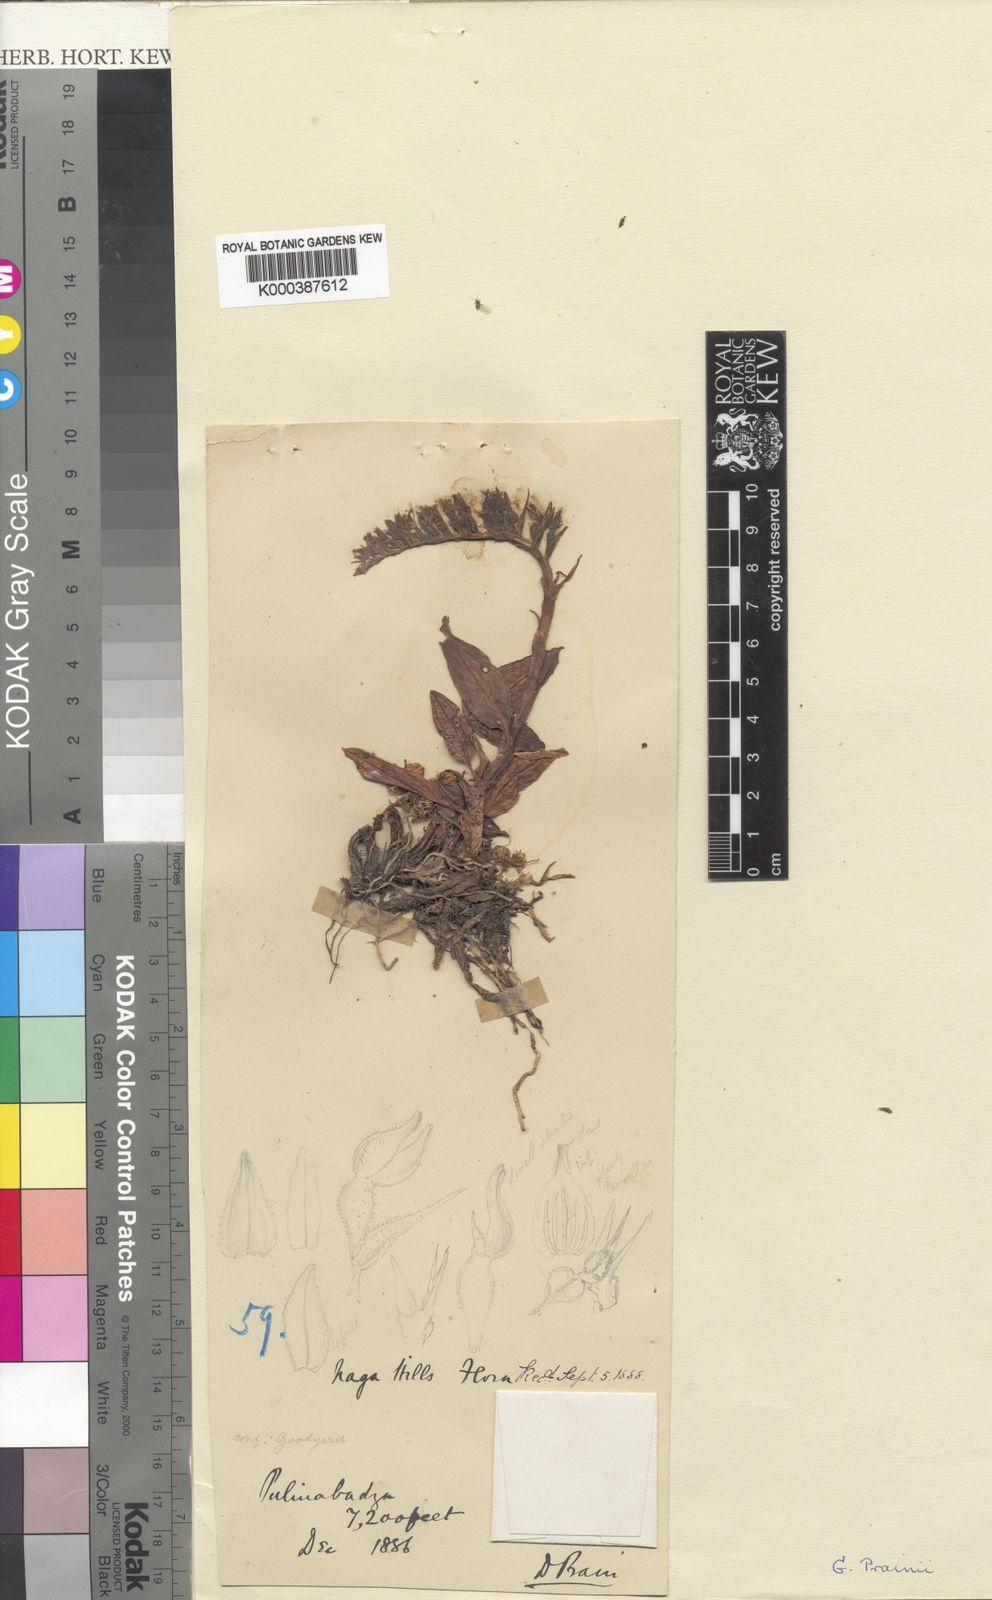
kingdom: Plantae
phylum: Tracheophyta
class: Liliopsida
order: Asparagales
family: Orchidaceae
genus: Goodyera
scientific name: Goodyera recurva
